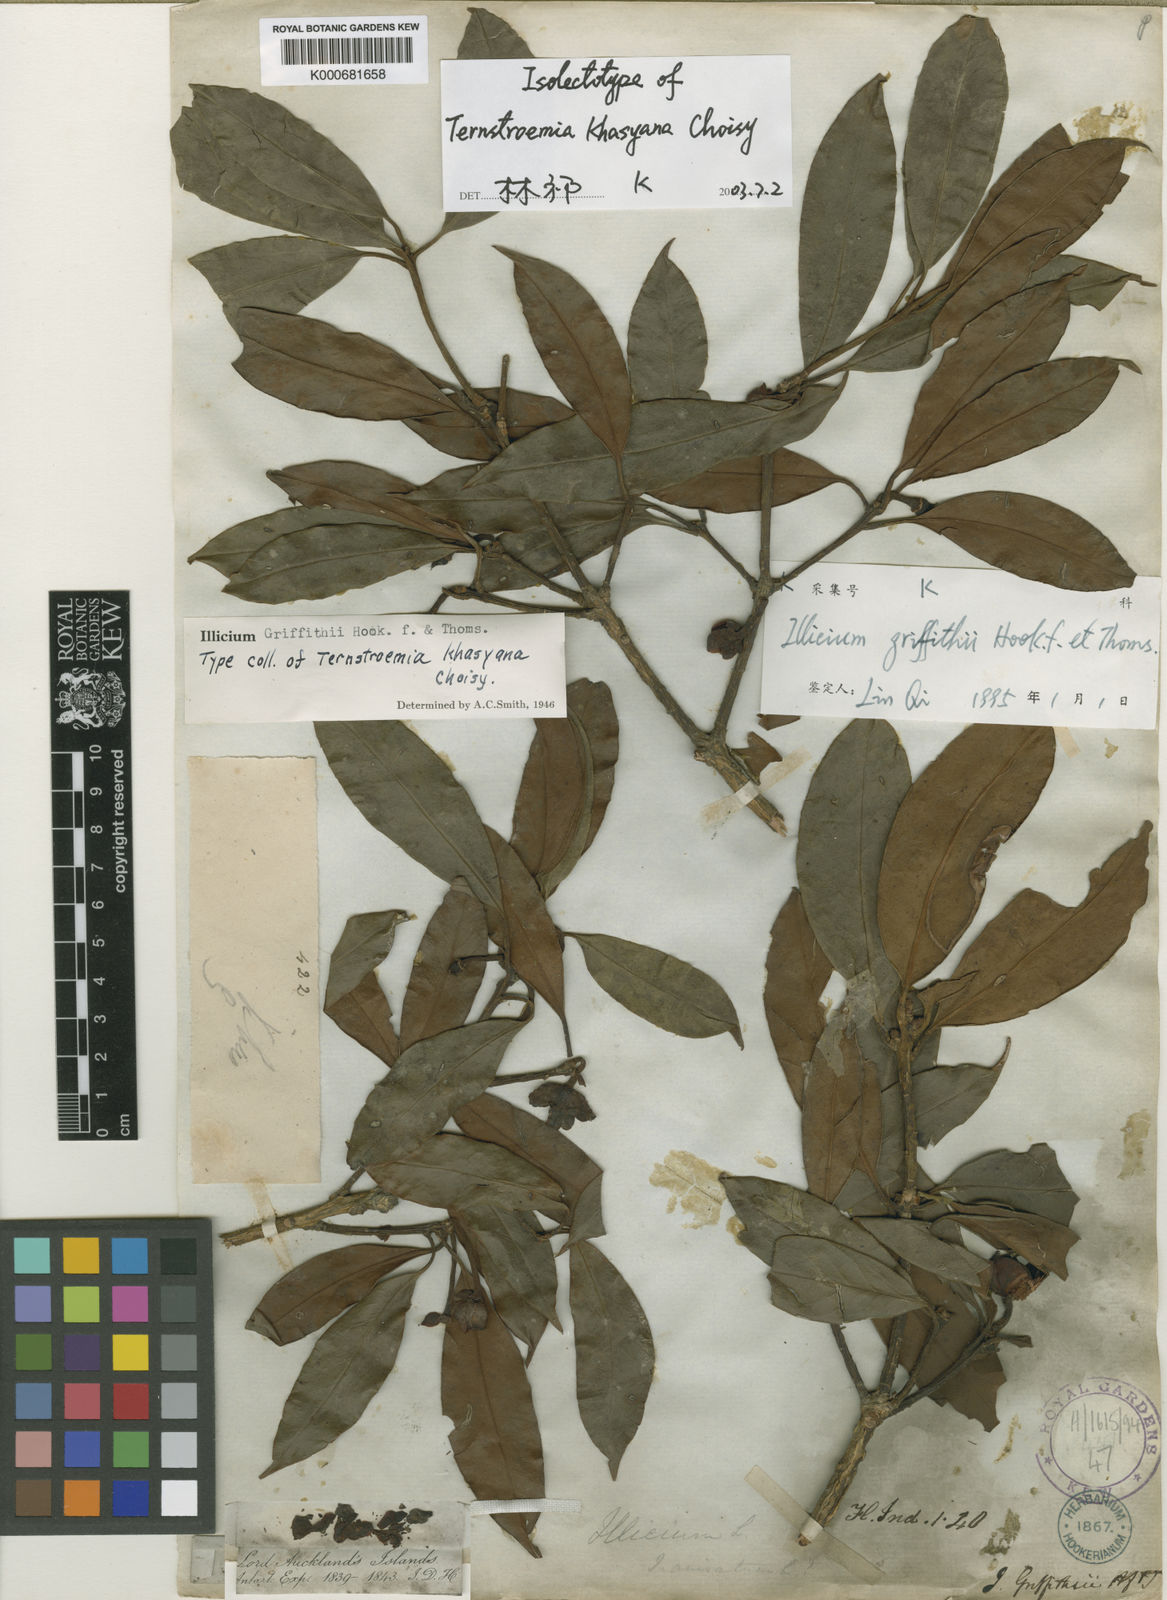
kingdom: Plantae
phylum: Tracheophyta
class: Magnoliopsida
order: Austrobaileyales
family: Schisandraceae
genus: Illicium
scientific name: Illicium griffithii
